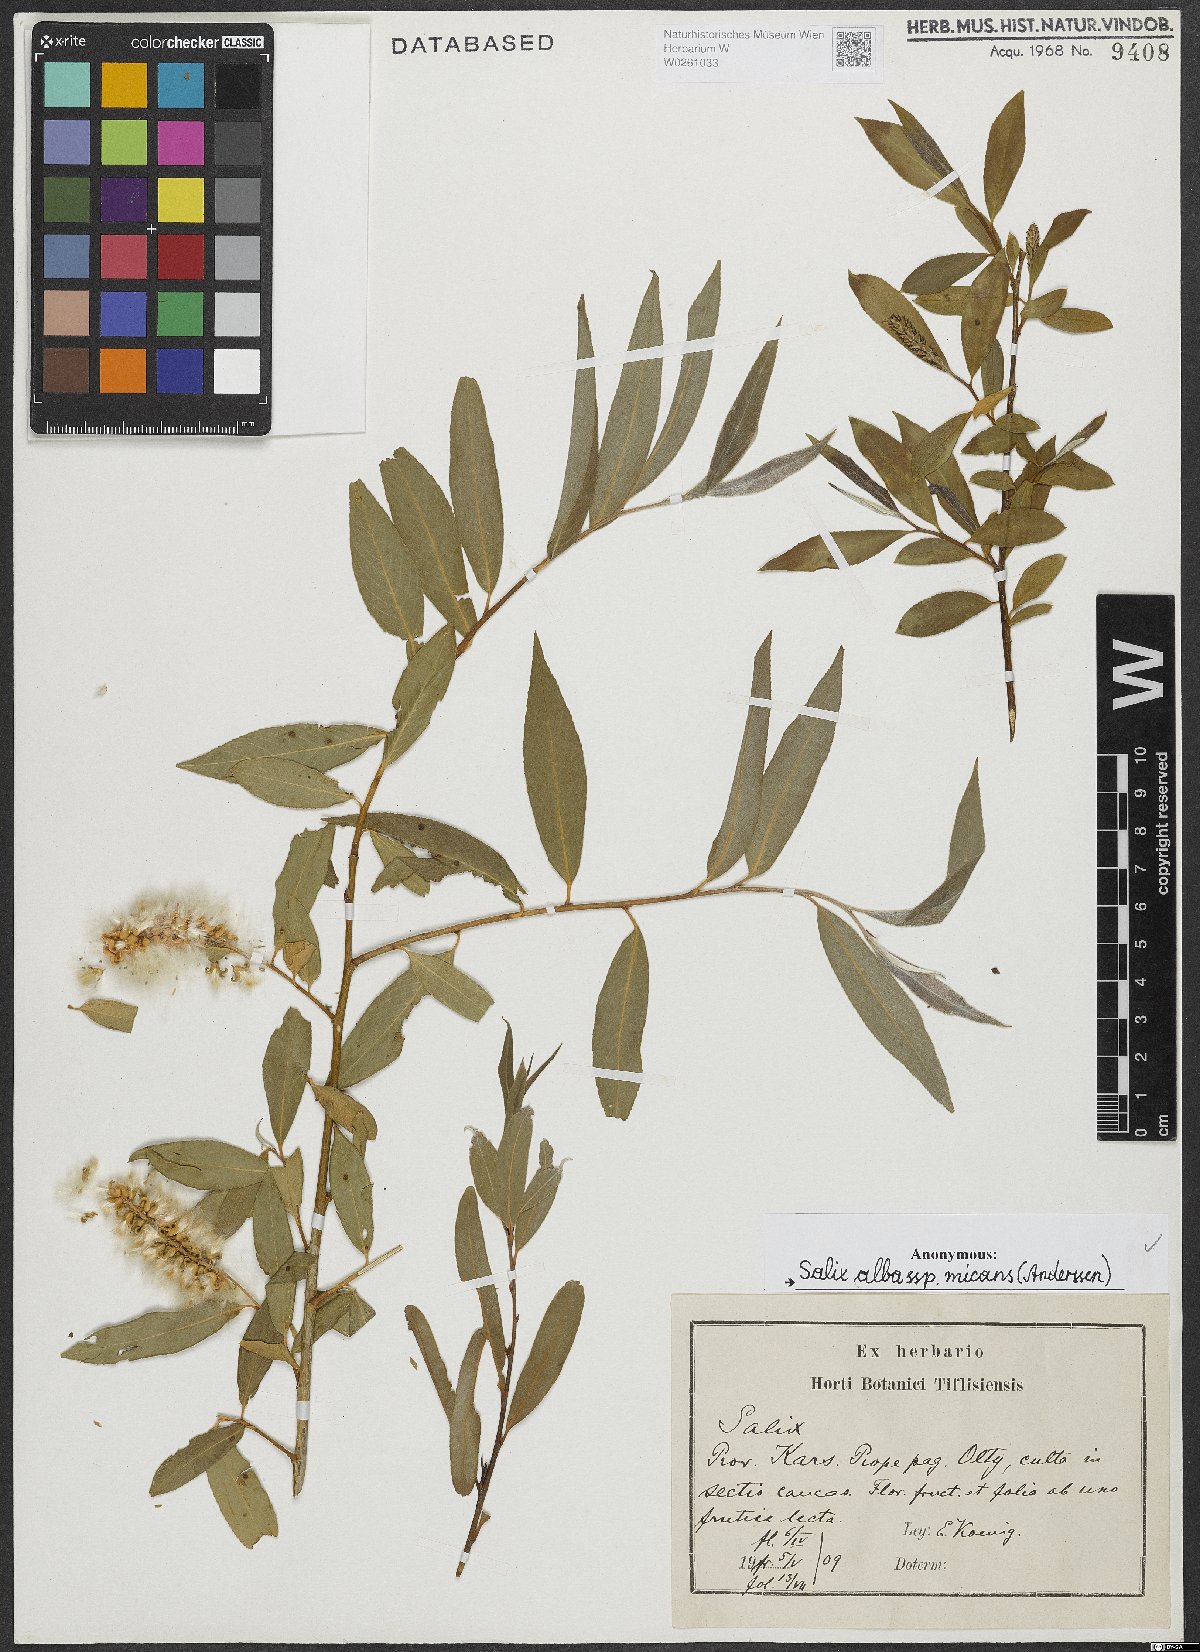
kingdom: Plantae
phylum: Tracheophyta
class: Magnoliopsida
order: Malpighiales
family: Salicaceae
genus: Salix
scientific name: Salix alba
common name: White willow
